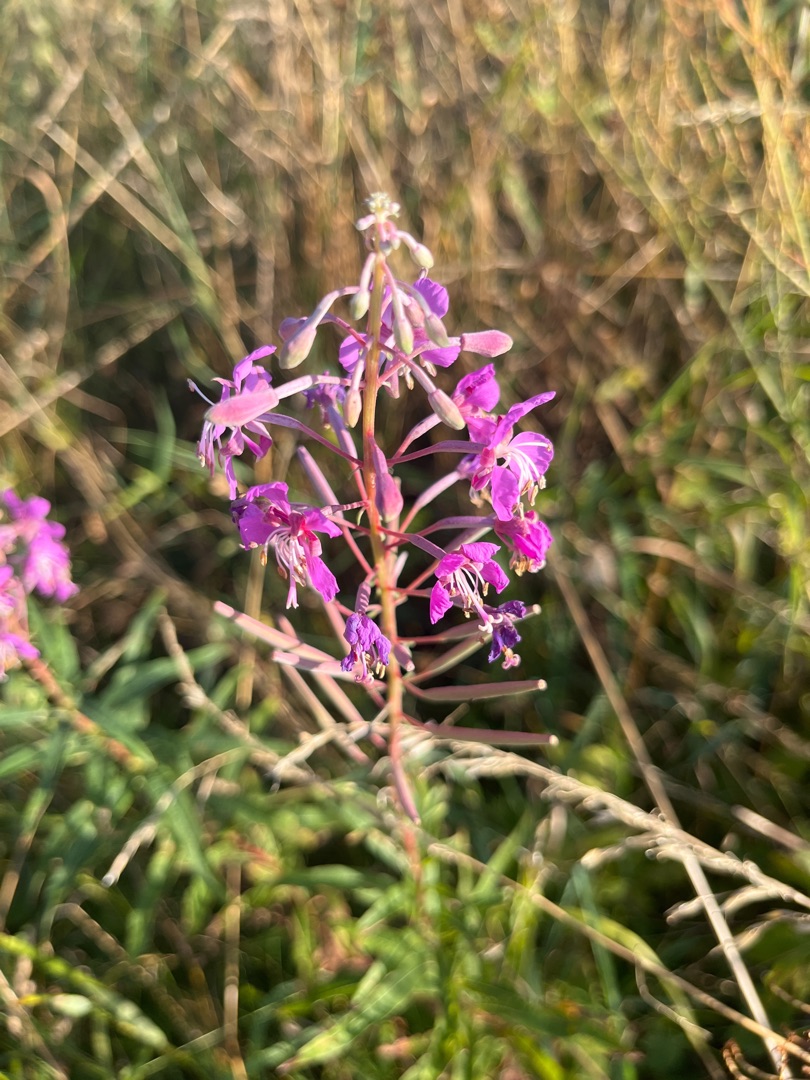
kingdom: Plantae
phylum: Tracheophyta
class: Magnoliopsida
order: Myrtales
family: Onagraceae
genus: Chamaenerion
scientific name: Chamaenerion angustifolium
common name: Gederams
